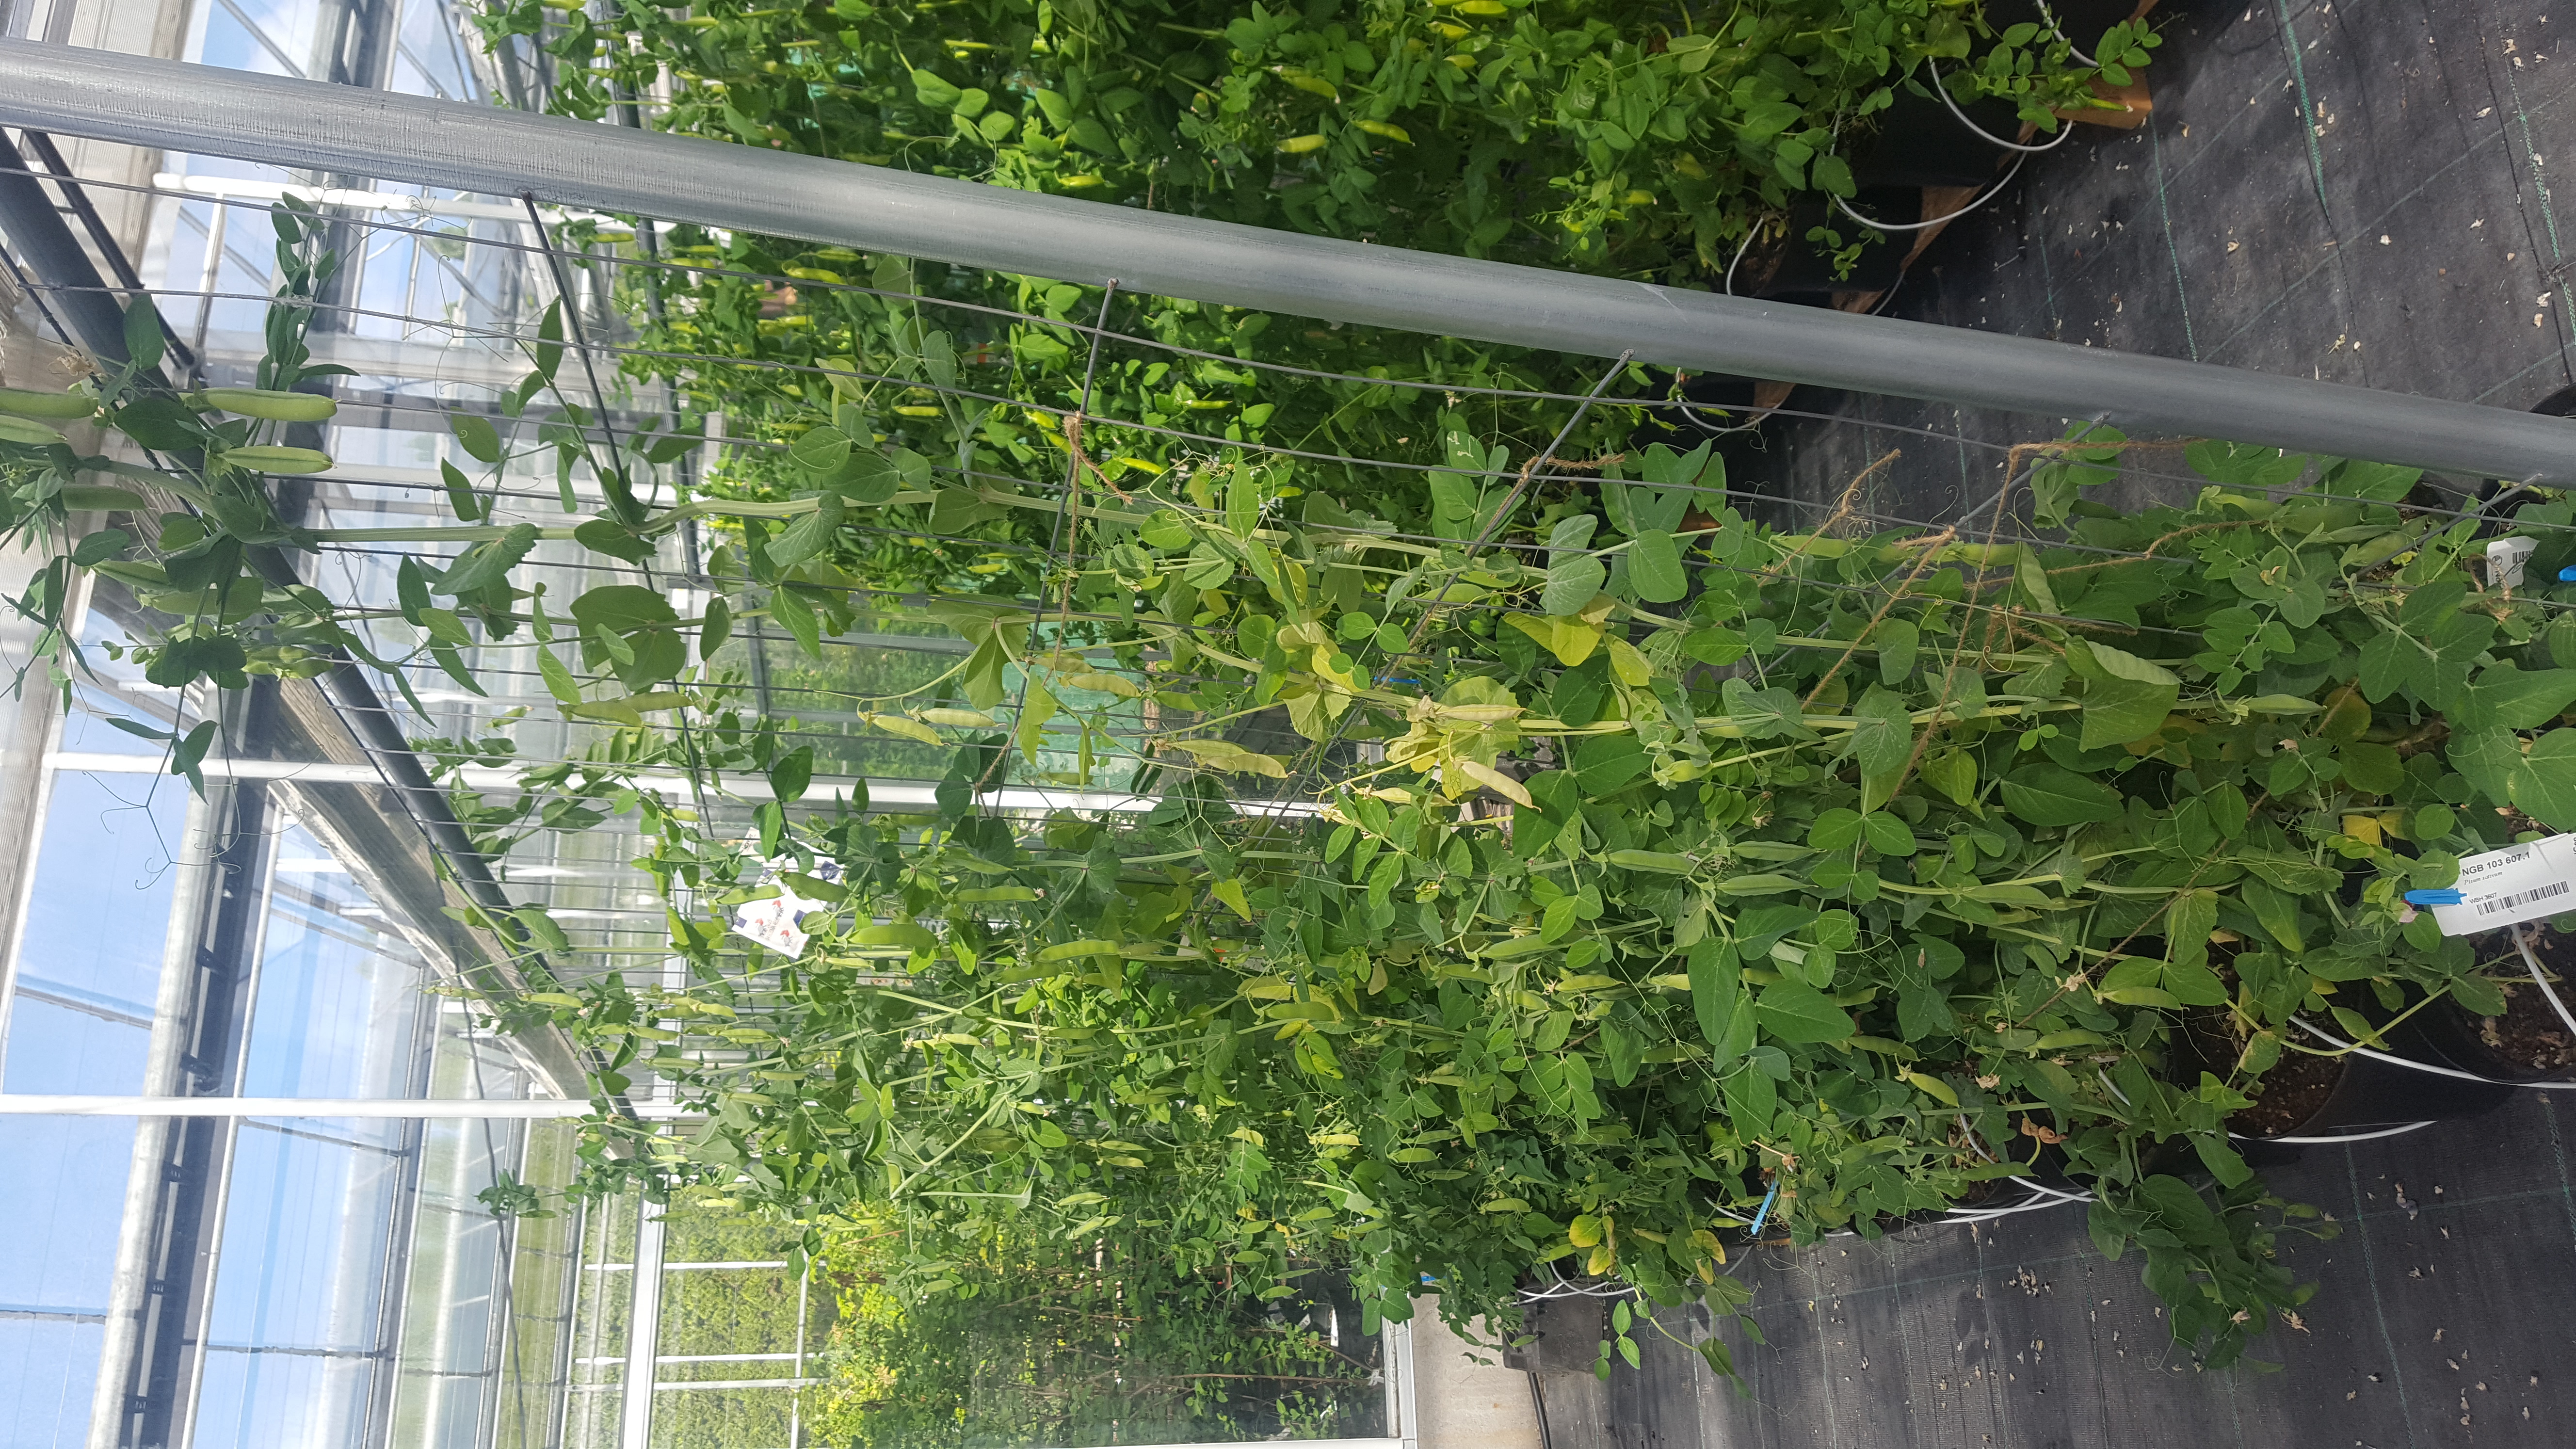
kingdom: Plantae
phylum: Tracheophyta
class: Magnoliopsida
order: Fabales
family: Fabaceae
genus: Lathyrus
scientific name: Lathyrus oleraceus
